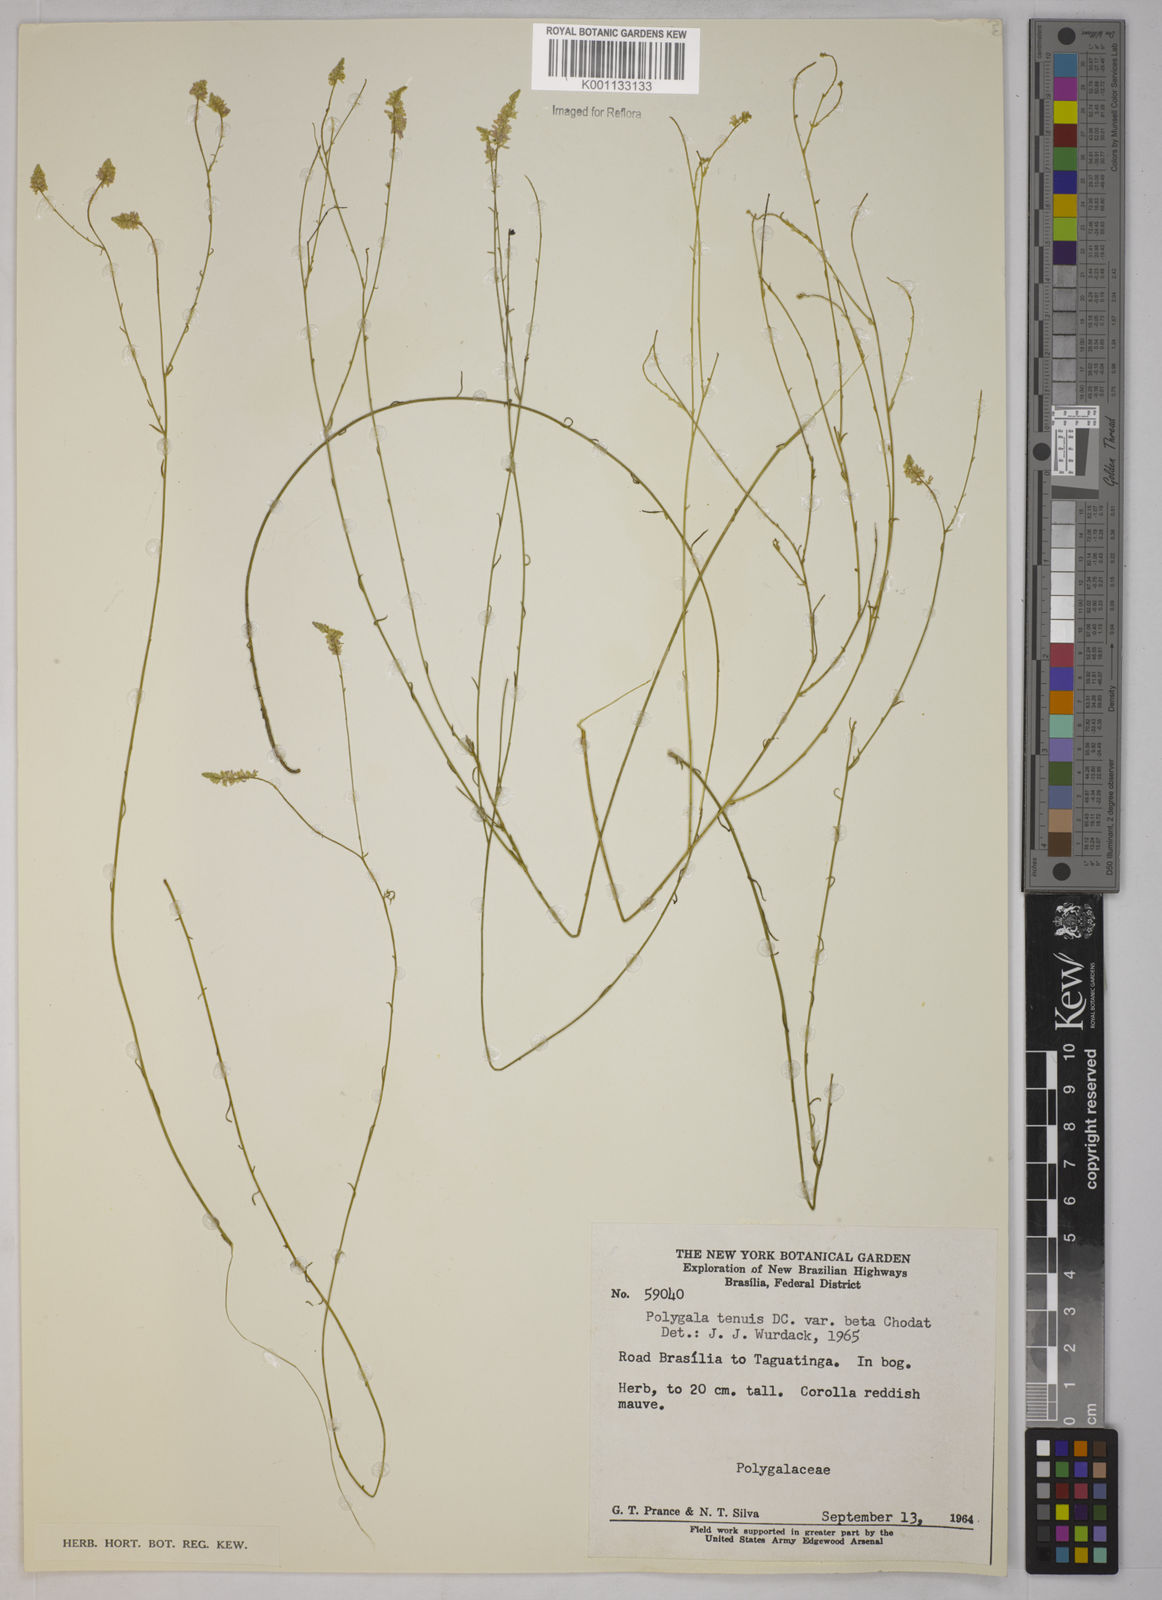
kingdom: Plantae
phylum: Tracheophyta
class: Magnoliopsida
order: Fabales
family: Polygalaceae
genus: Polygala
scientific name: Polygala tenuis
